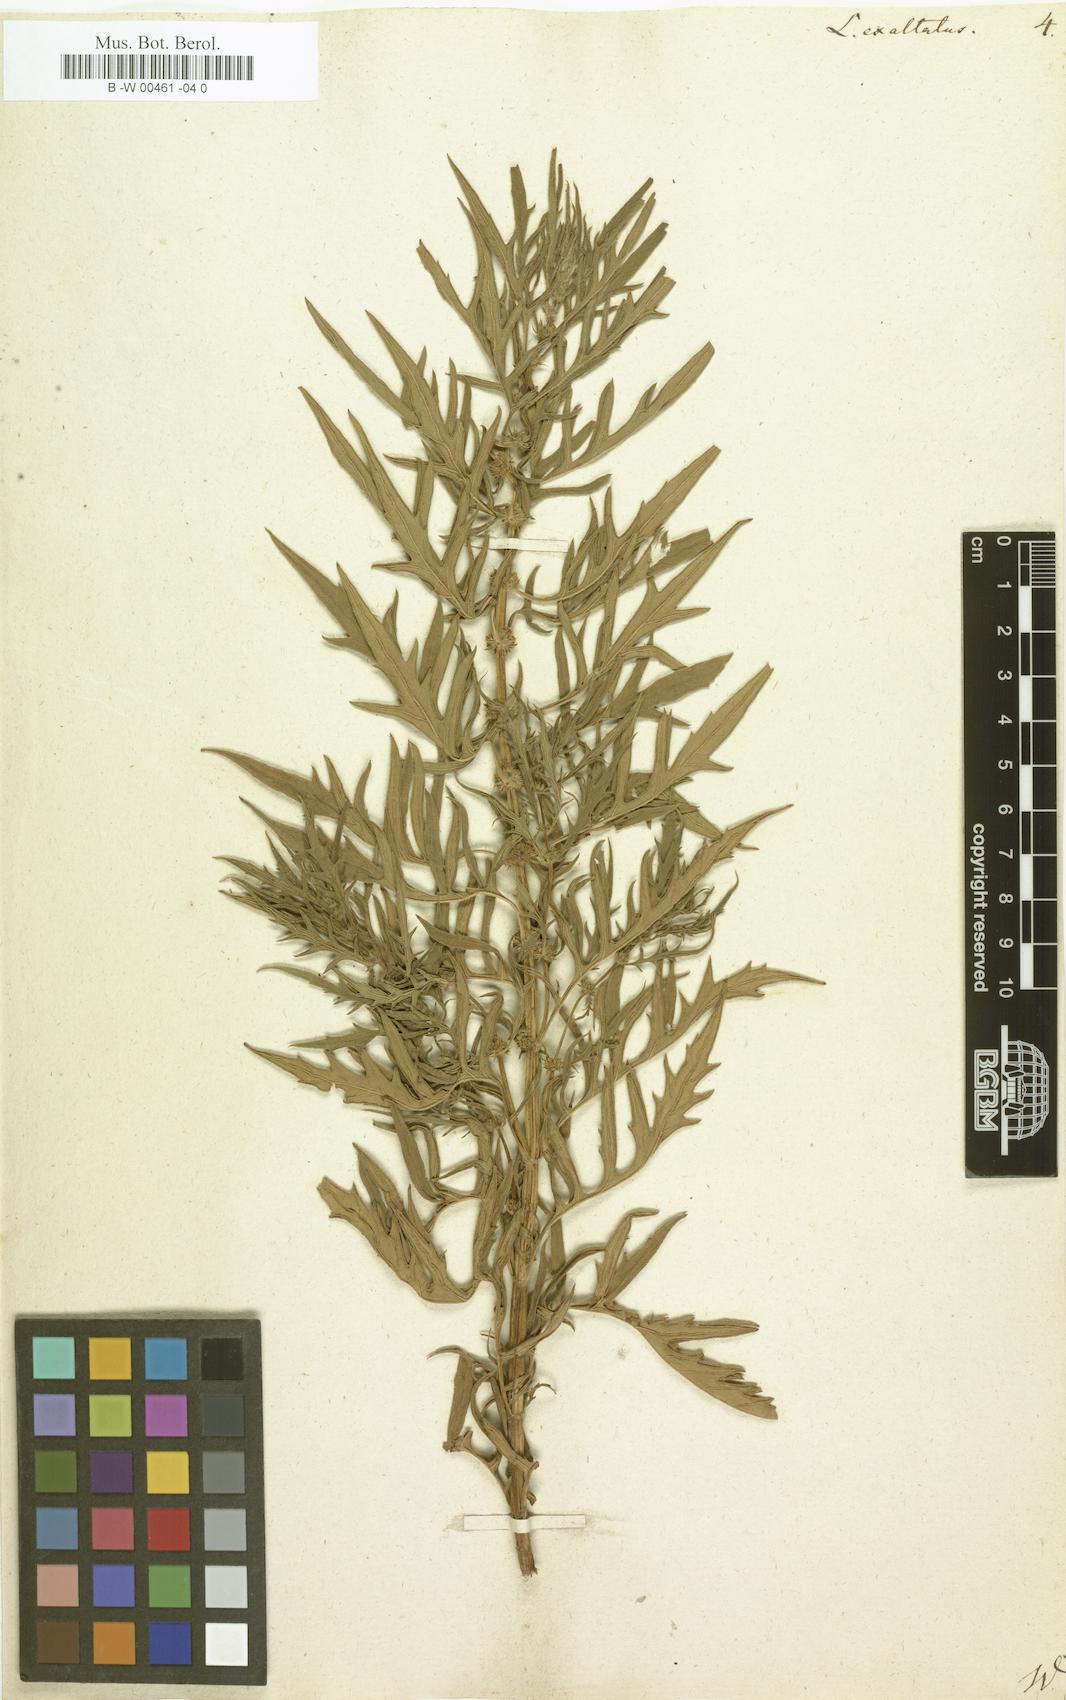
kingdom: Plantae
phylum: Tracheophyta
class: Magnoliopsida
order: Lamiales
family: Lamiaceae
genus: Lycopus
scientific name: Lycopus exaltatus
